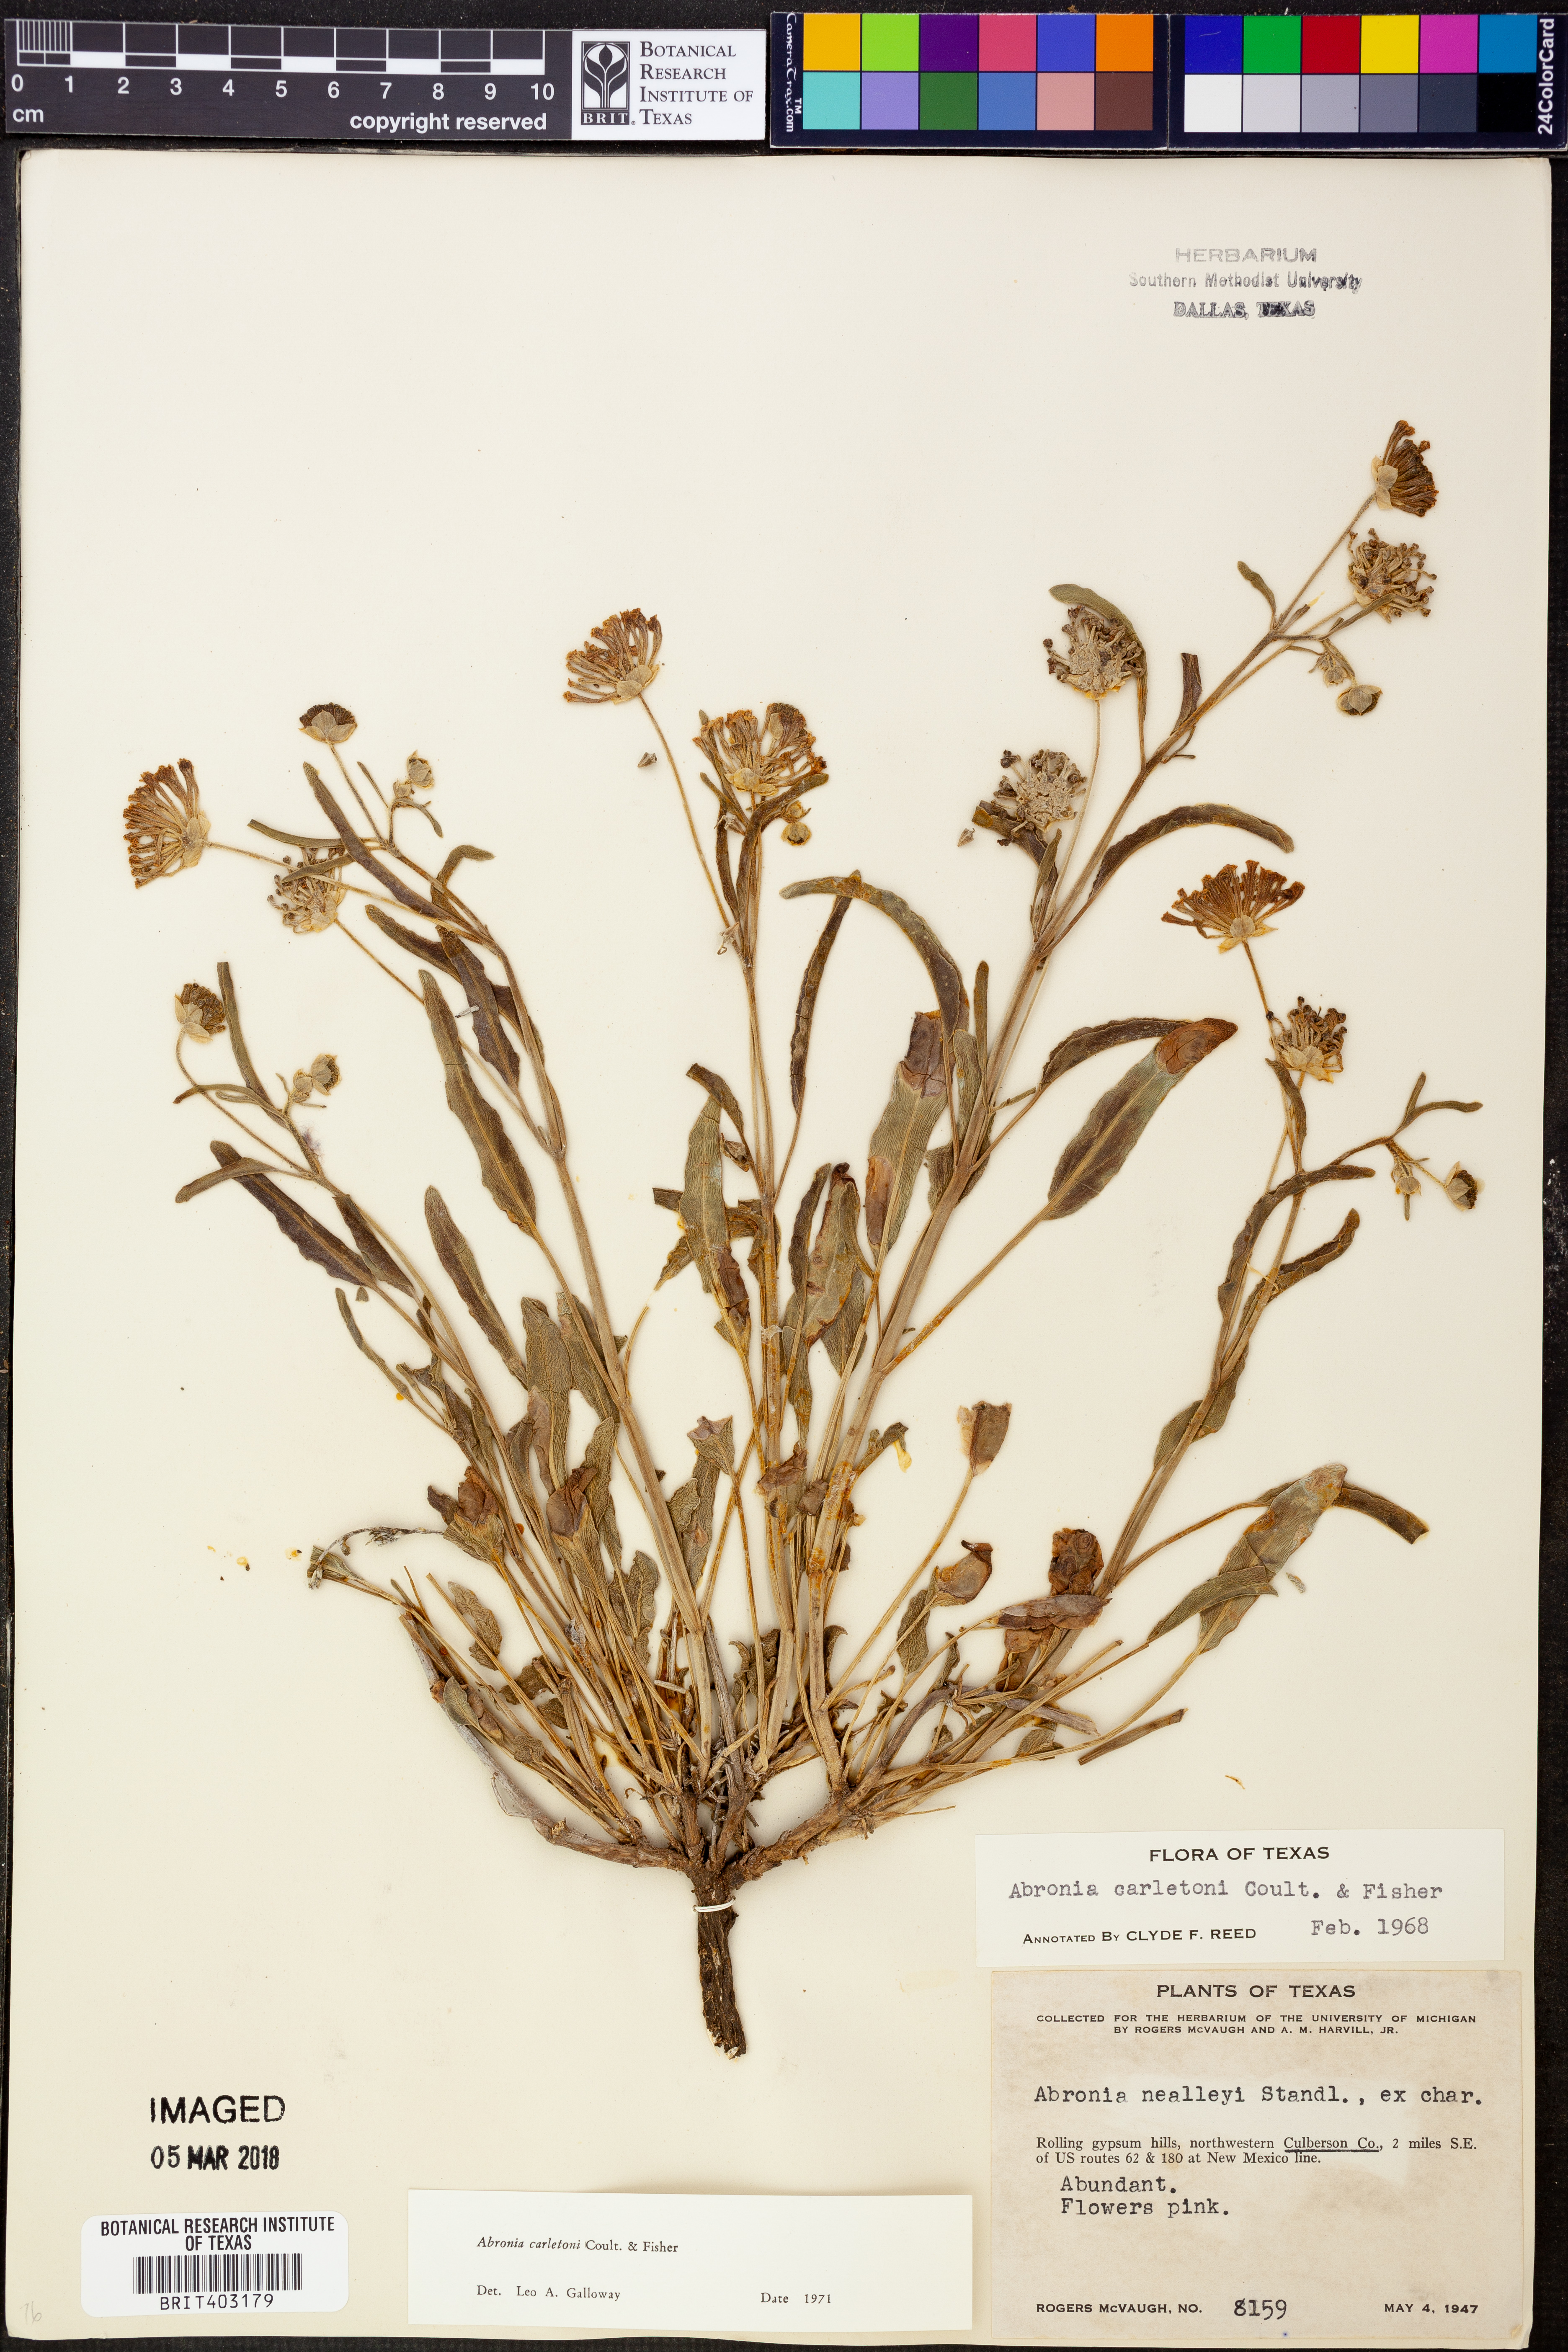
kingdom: Plantae
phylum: Tracheophyta
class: Magnoliopsida
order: Caryophyllales
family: Nyctaginaceae
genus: Abronia
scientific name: Abronia carletonii
